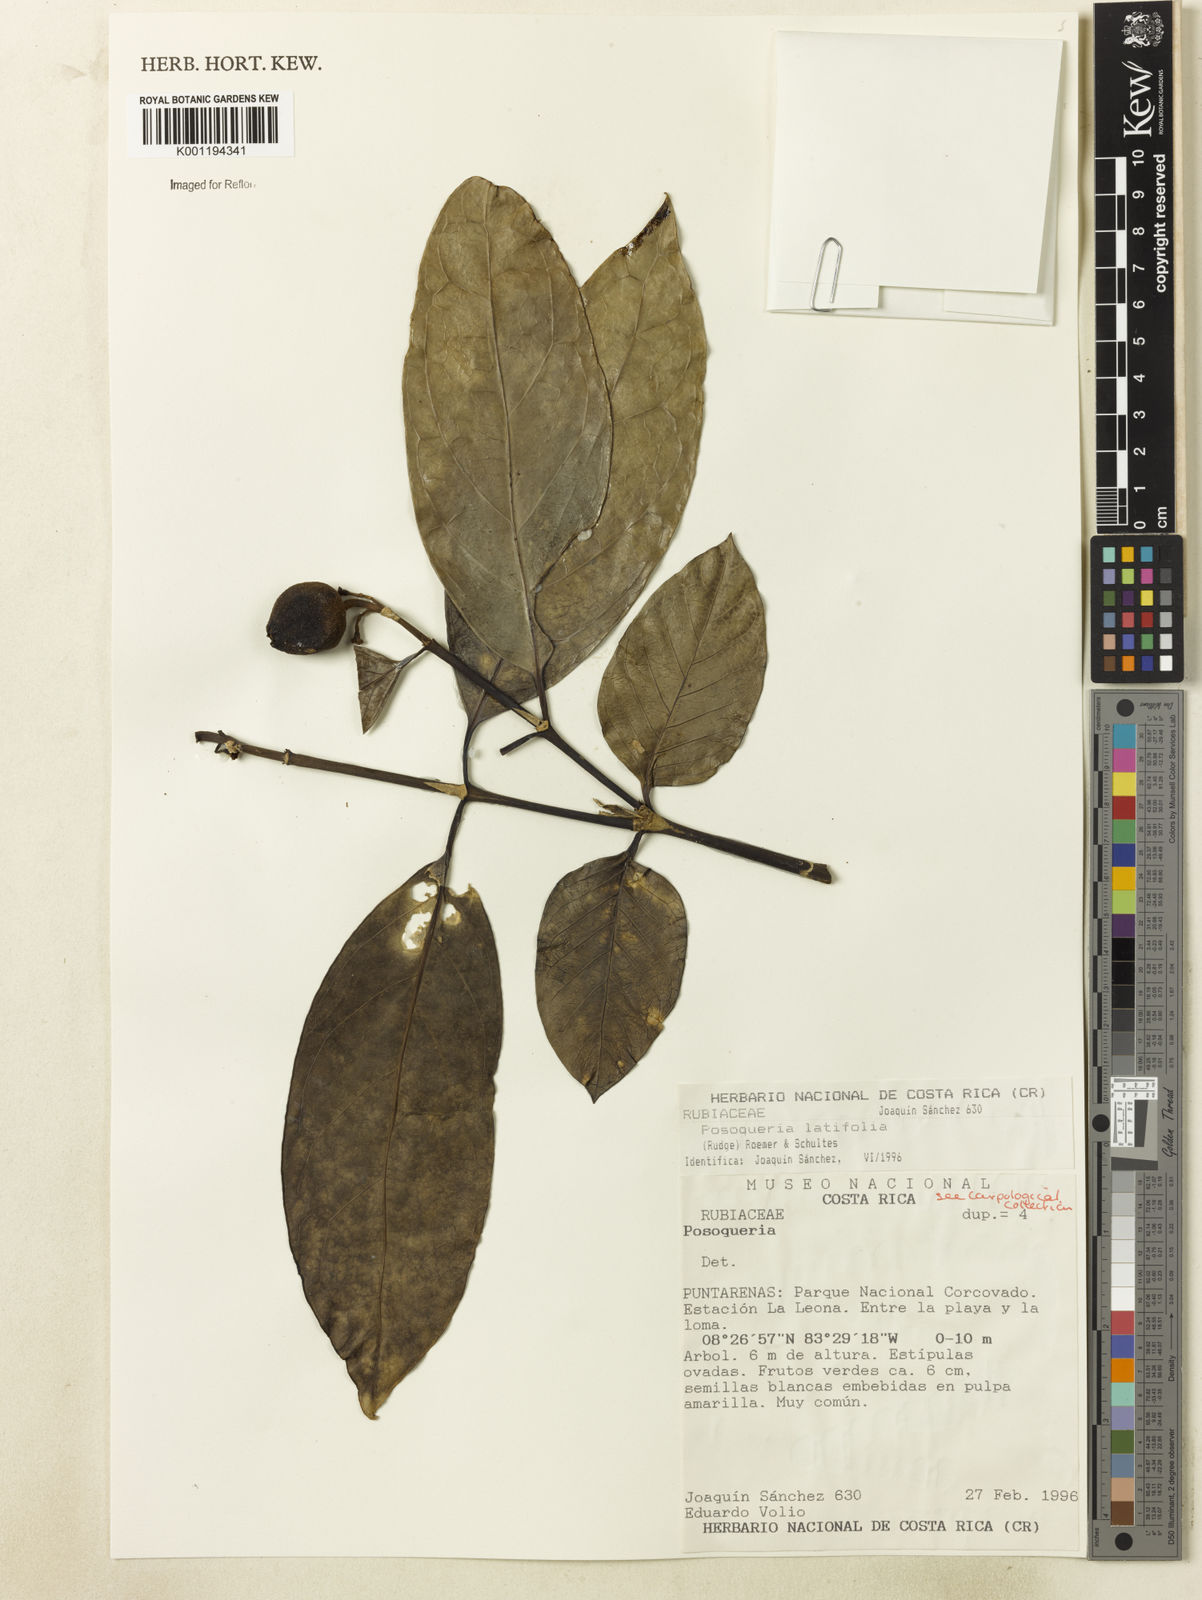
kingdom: Plantae
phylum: Tracheophyta
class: Magnoliopsida
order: Gentianales
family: Rubiaceae
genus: Posoqueria
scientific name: Posoqueria latifolia
